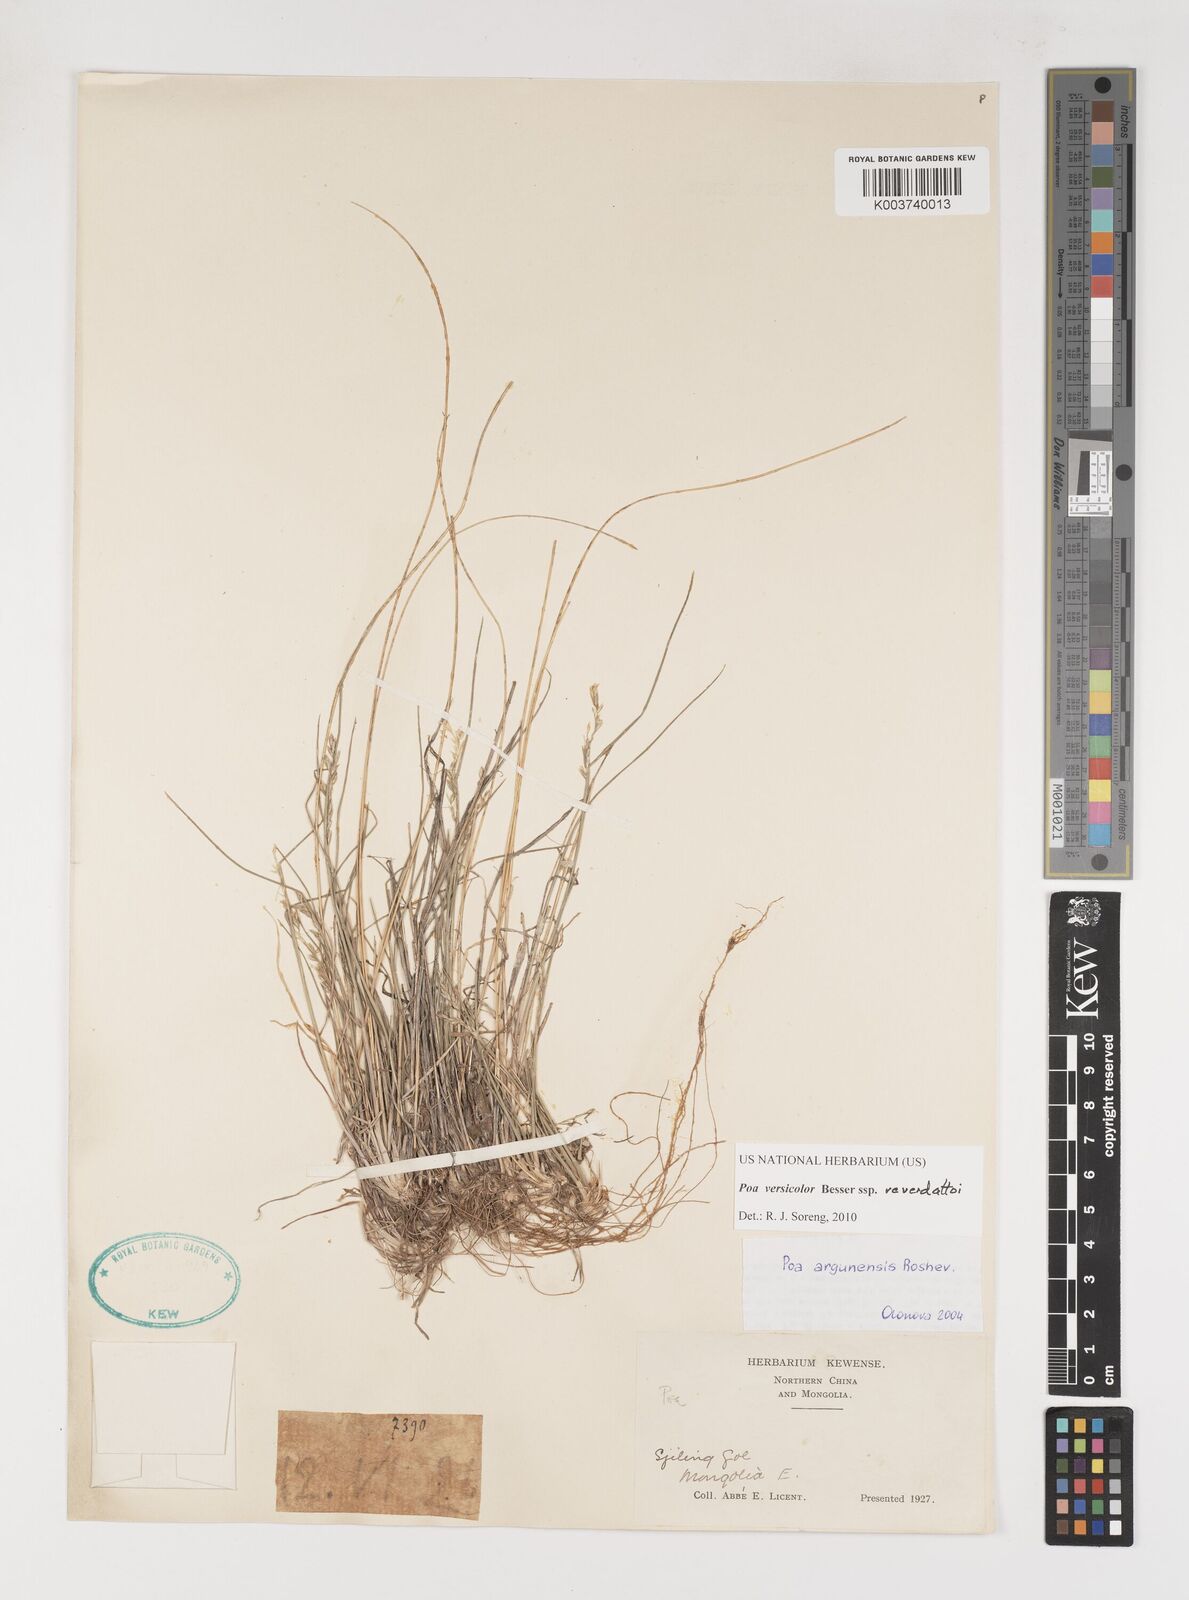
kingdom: Plantae
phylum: Tracheophyta
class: Liliopsida
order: Poales
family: Poaceae
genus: Poa
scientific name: Poa glauca
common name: Glaucous bluegrass
